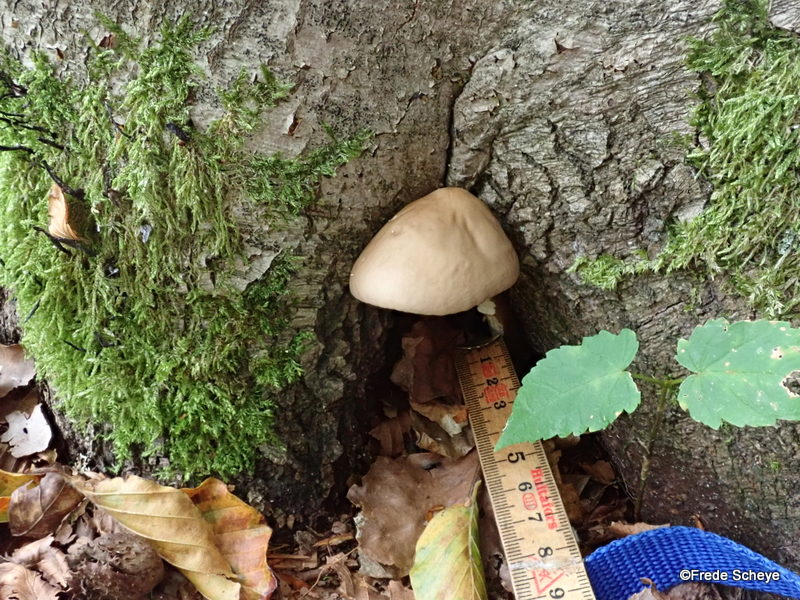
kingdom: Fungi
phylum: Basidiomycota
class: Agaricomycetes
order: Agaricales
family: Physalacriaceae
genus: Hymenopellis
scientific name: Hymenopellis radicata
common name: almindelig pælerodshat
